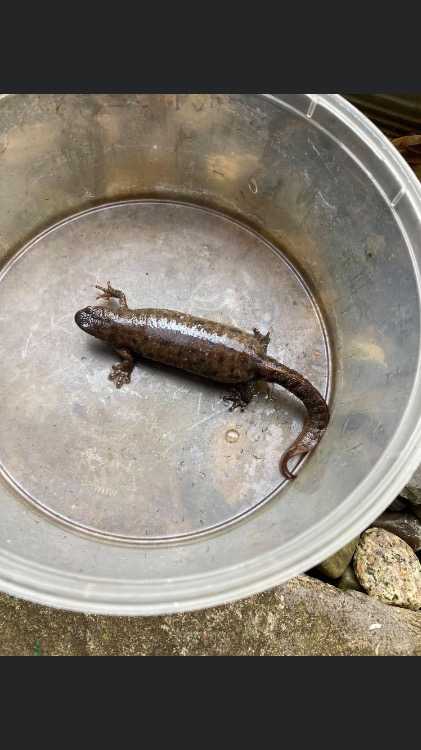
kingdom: Animalia
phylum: Chordata
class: Amphibia
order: Caudata
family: Salamandridae
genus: Triturus
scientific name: Triturus cristatus
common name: Stor vandsalamander
